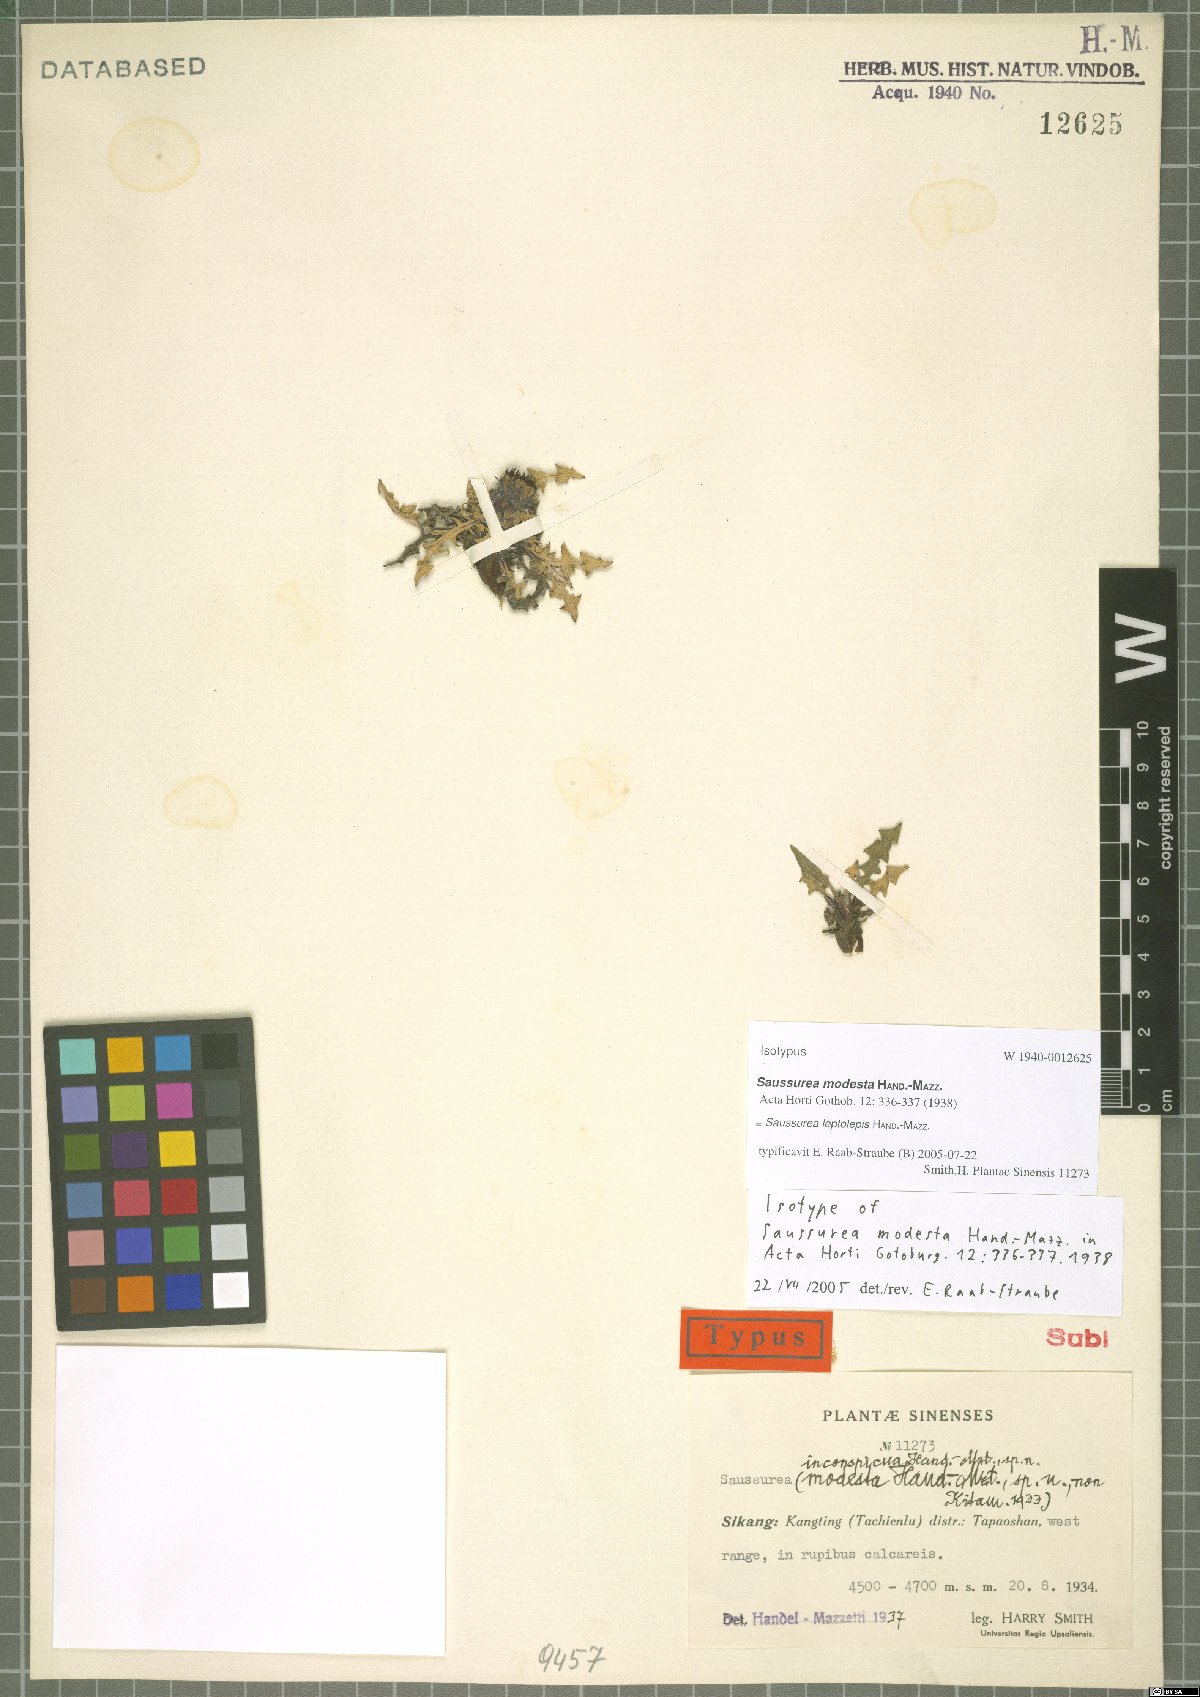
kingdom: Plantae
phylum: Tracheophyta
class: Magnoliopsida
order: Asterales
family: Asteraceae
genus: Saussurea
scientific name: Saussurea leptolepis
